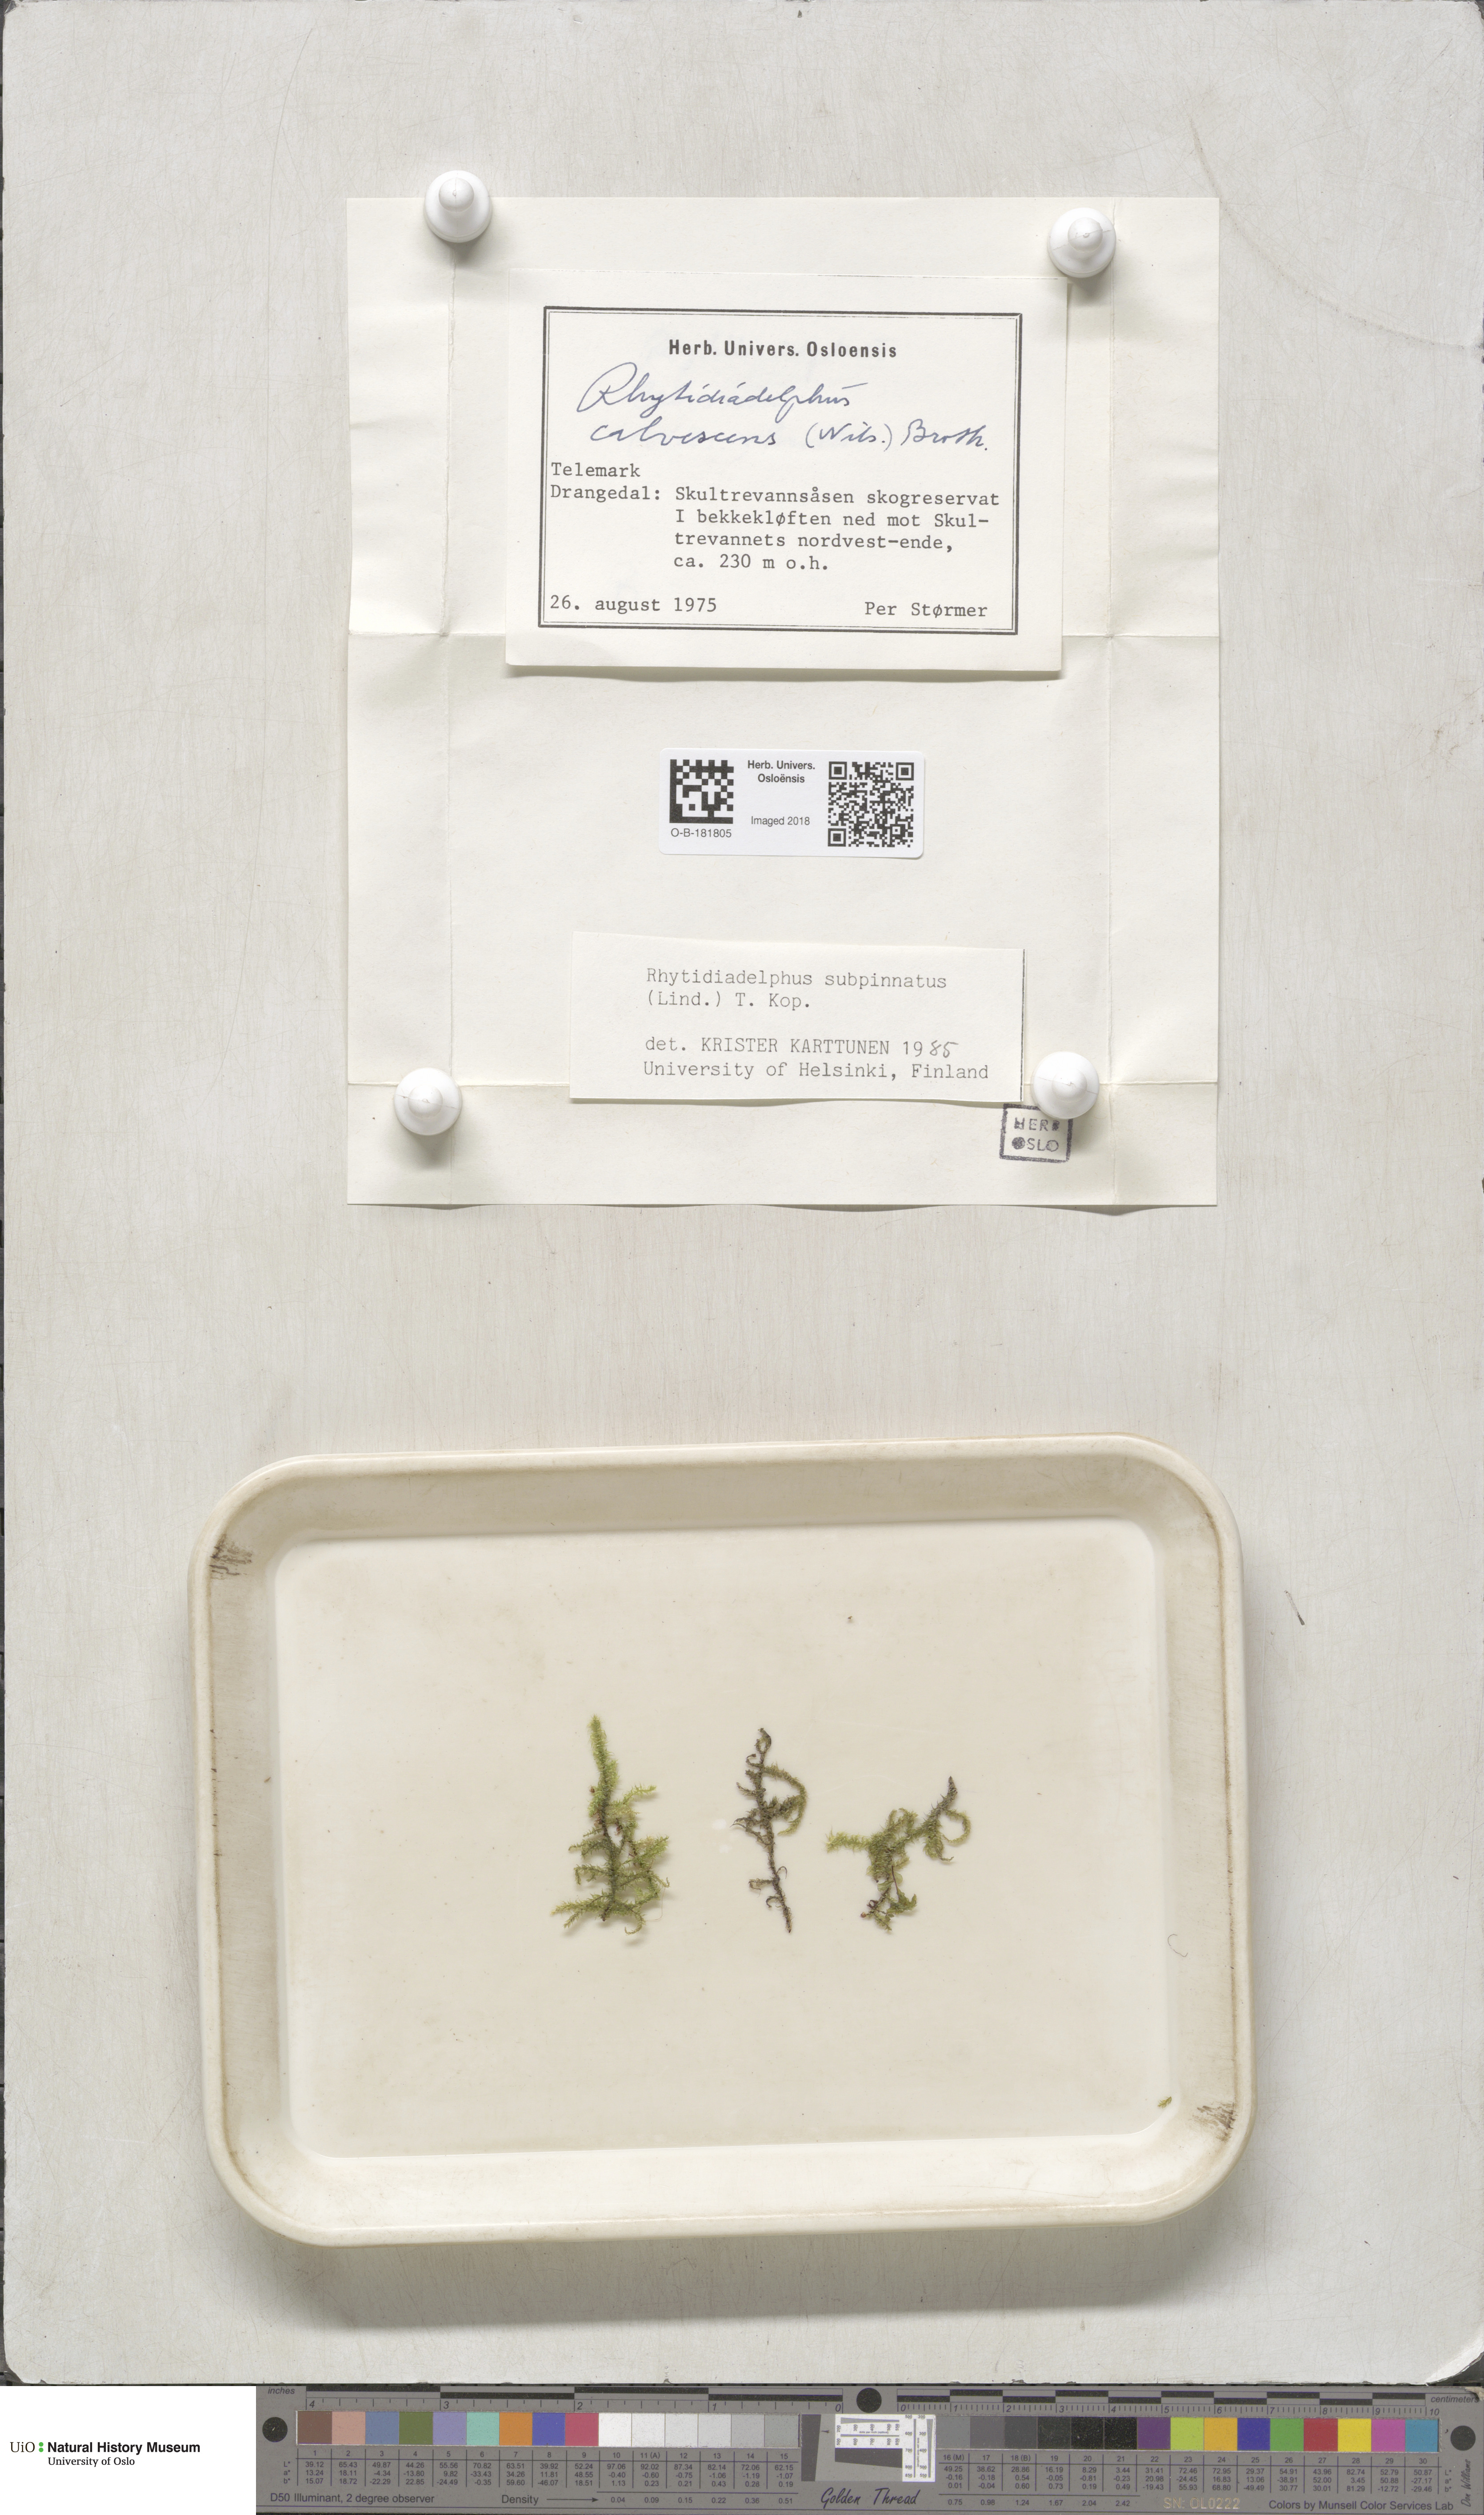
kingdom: Plantae
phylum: Bryophyta
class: Bryopsida
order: Hypnales
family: Hylocomiaceae
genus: Rhytidiadelphus
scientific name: Rhytidiadelphus subpinnatus
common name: Subpinnate gooseneck moss
